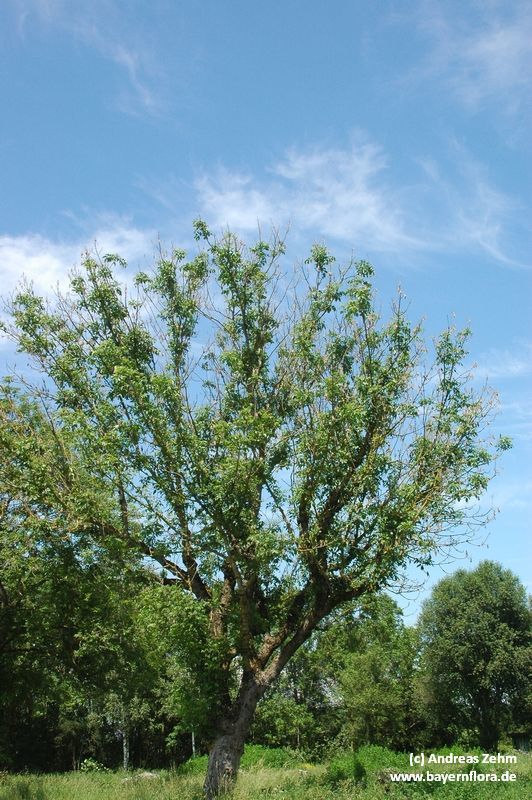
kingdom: Plantae
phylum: Tracheophyta
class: Magnoliopsida
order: Lamiales
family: Oleaceae
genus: Fraxinus
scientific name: Fraxinus excelsior
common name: European ash
